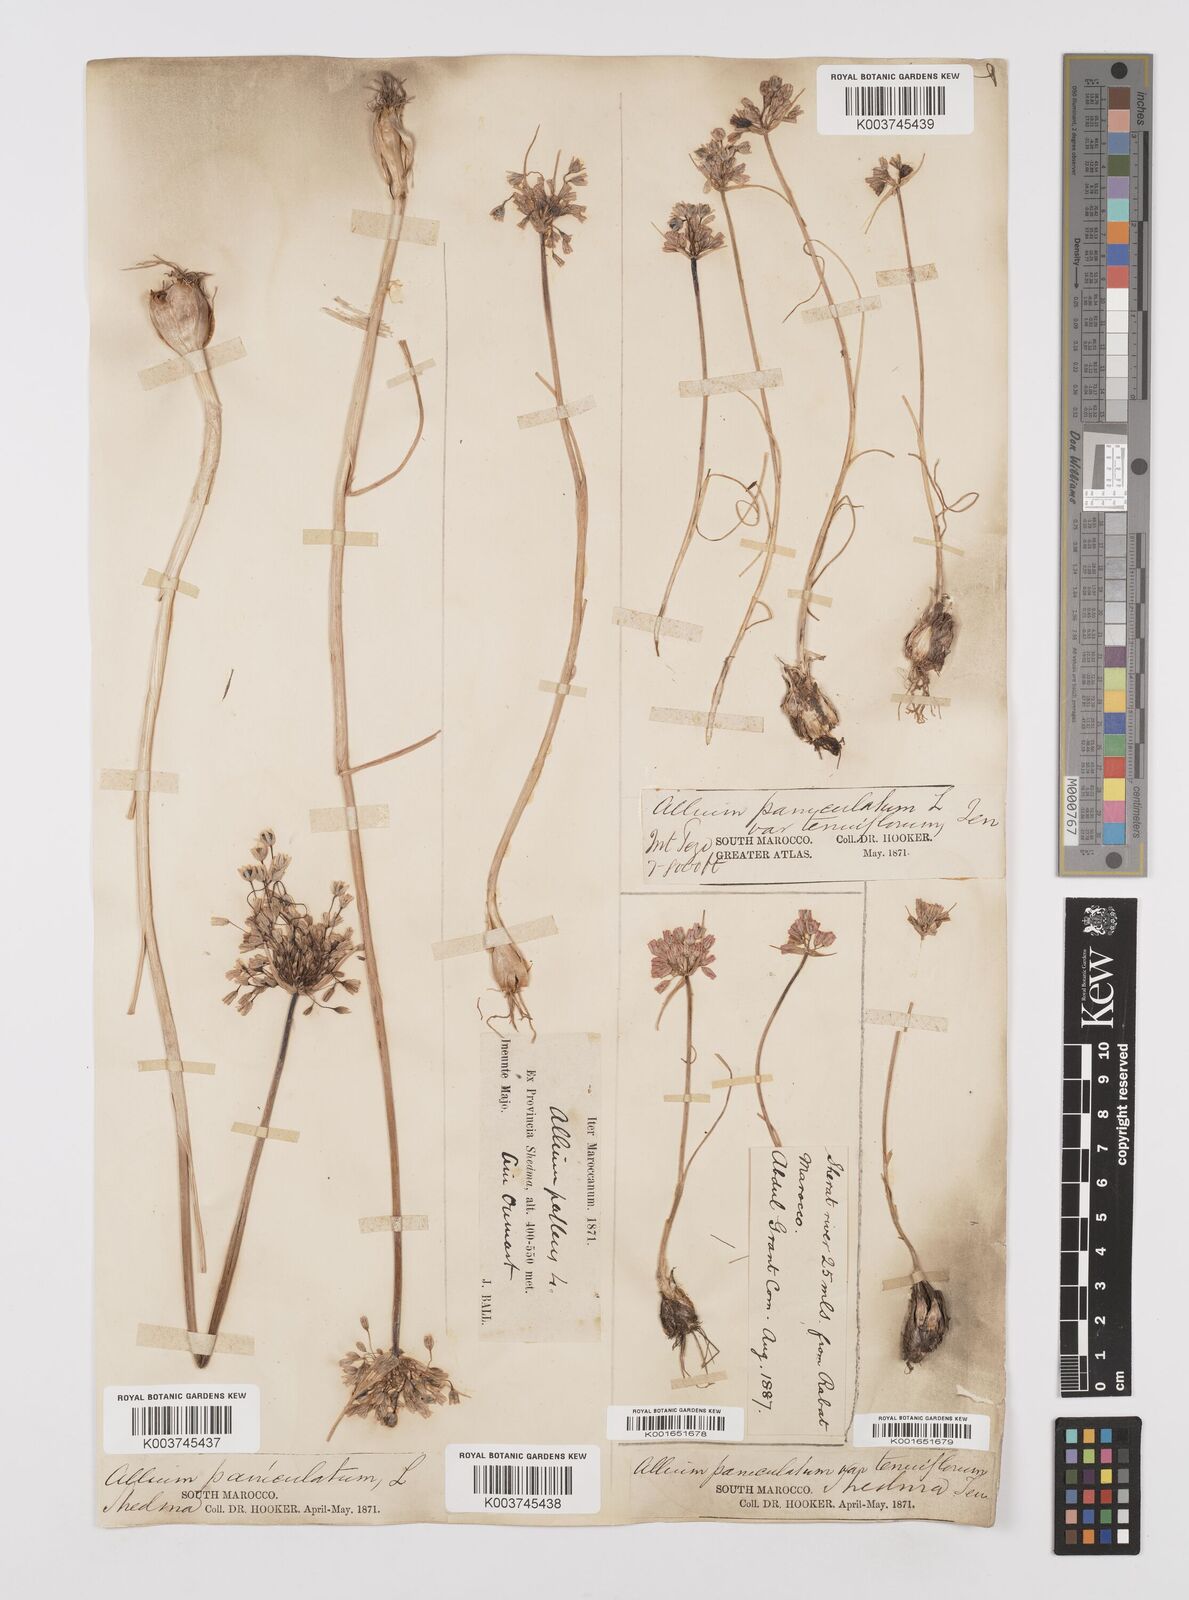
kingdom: Plantae
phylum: Tracheophyta
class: Liliopsida
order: Asparagales
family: Amaryllidaceae
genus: Allium
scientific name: Allium paniculatum
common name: Pale garlic
